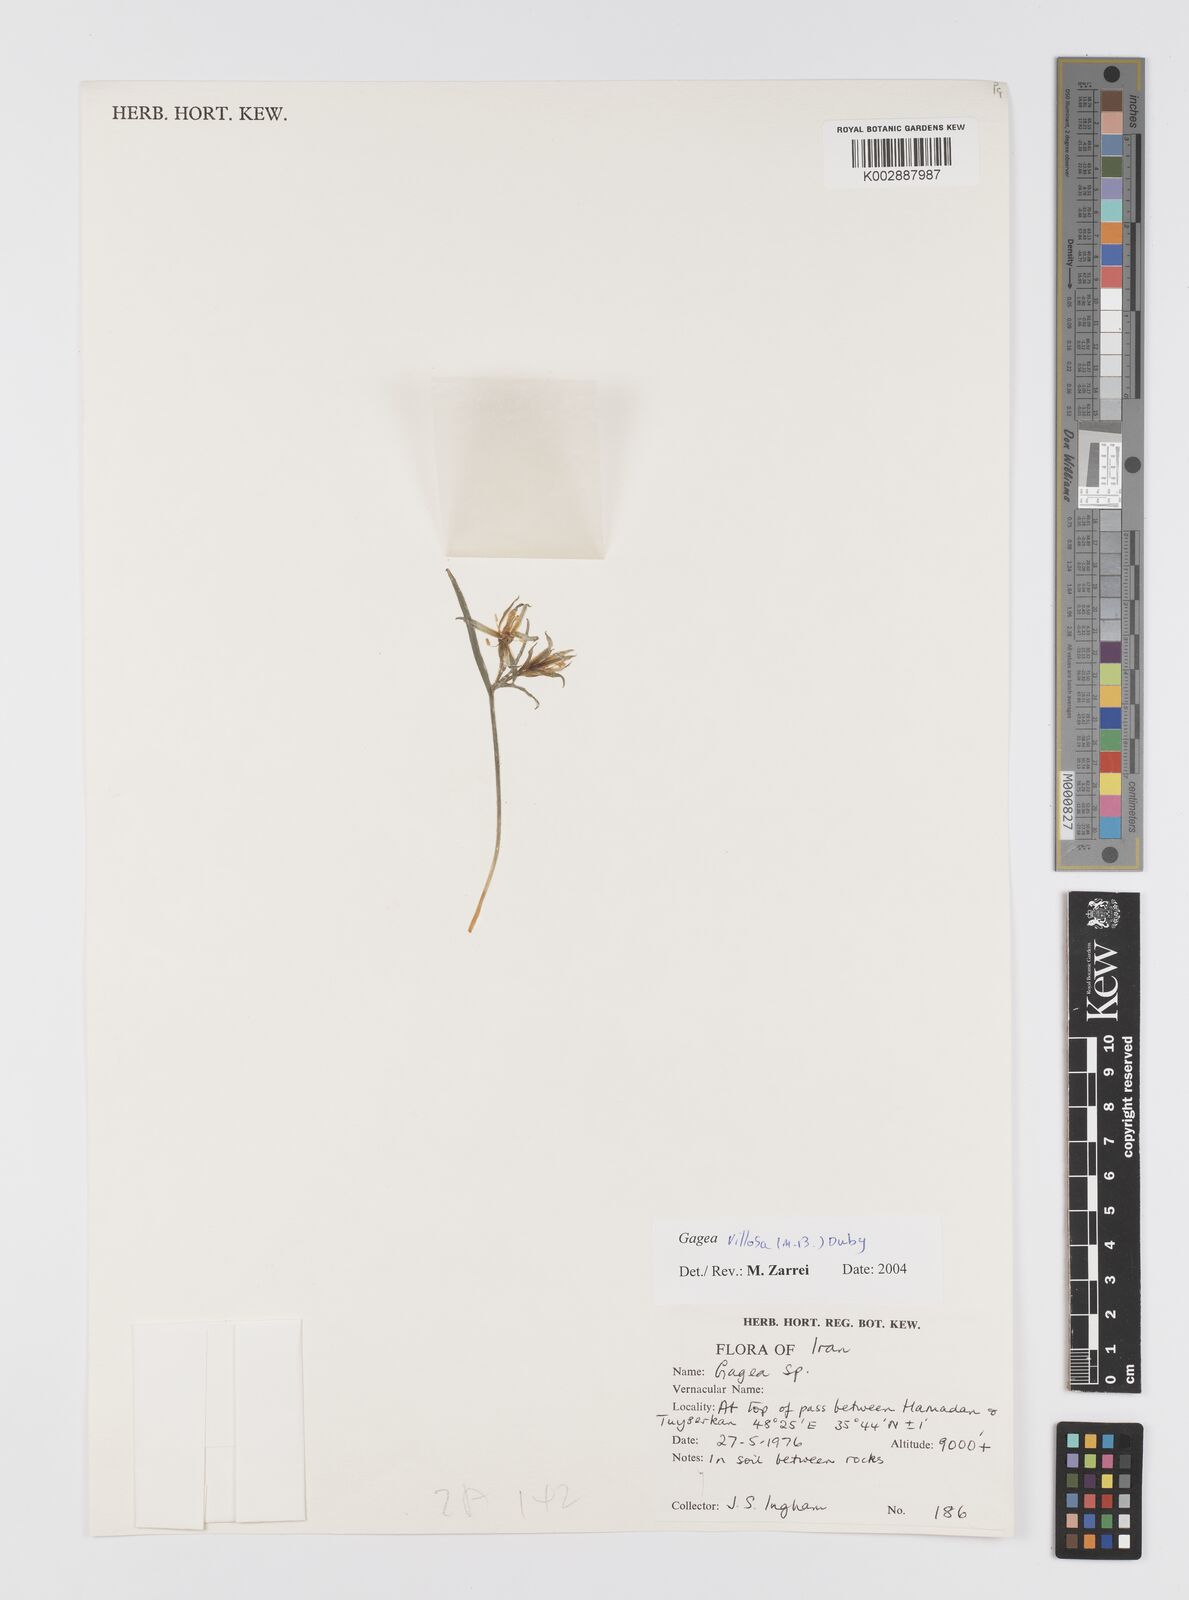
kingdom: Plantae
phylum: Tracheophyta
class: Liliopsida
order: Liliales
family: Liliaceae
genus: Gagea
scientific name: Gagea bohemica
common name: Early star-of-bethlehem
